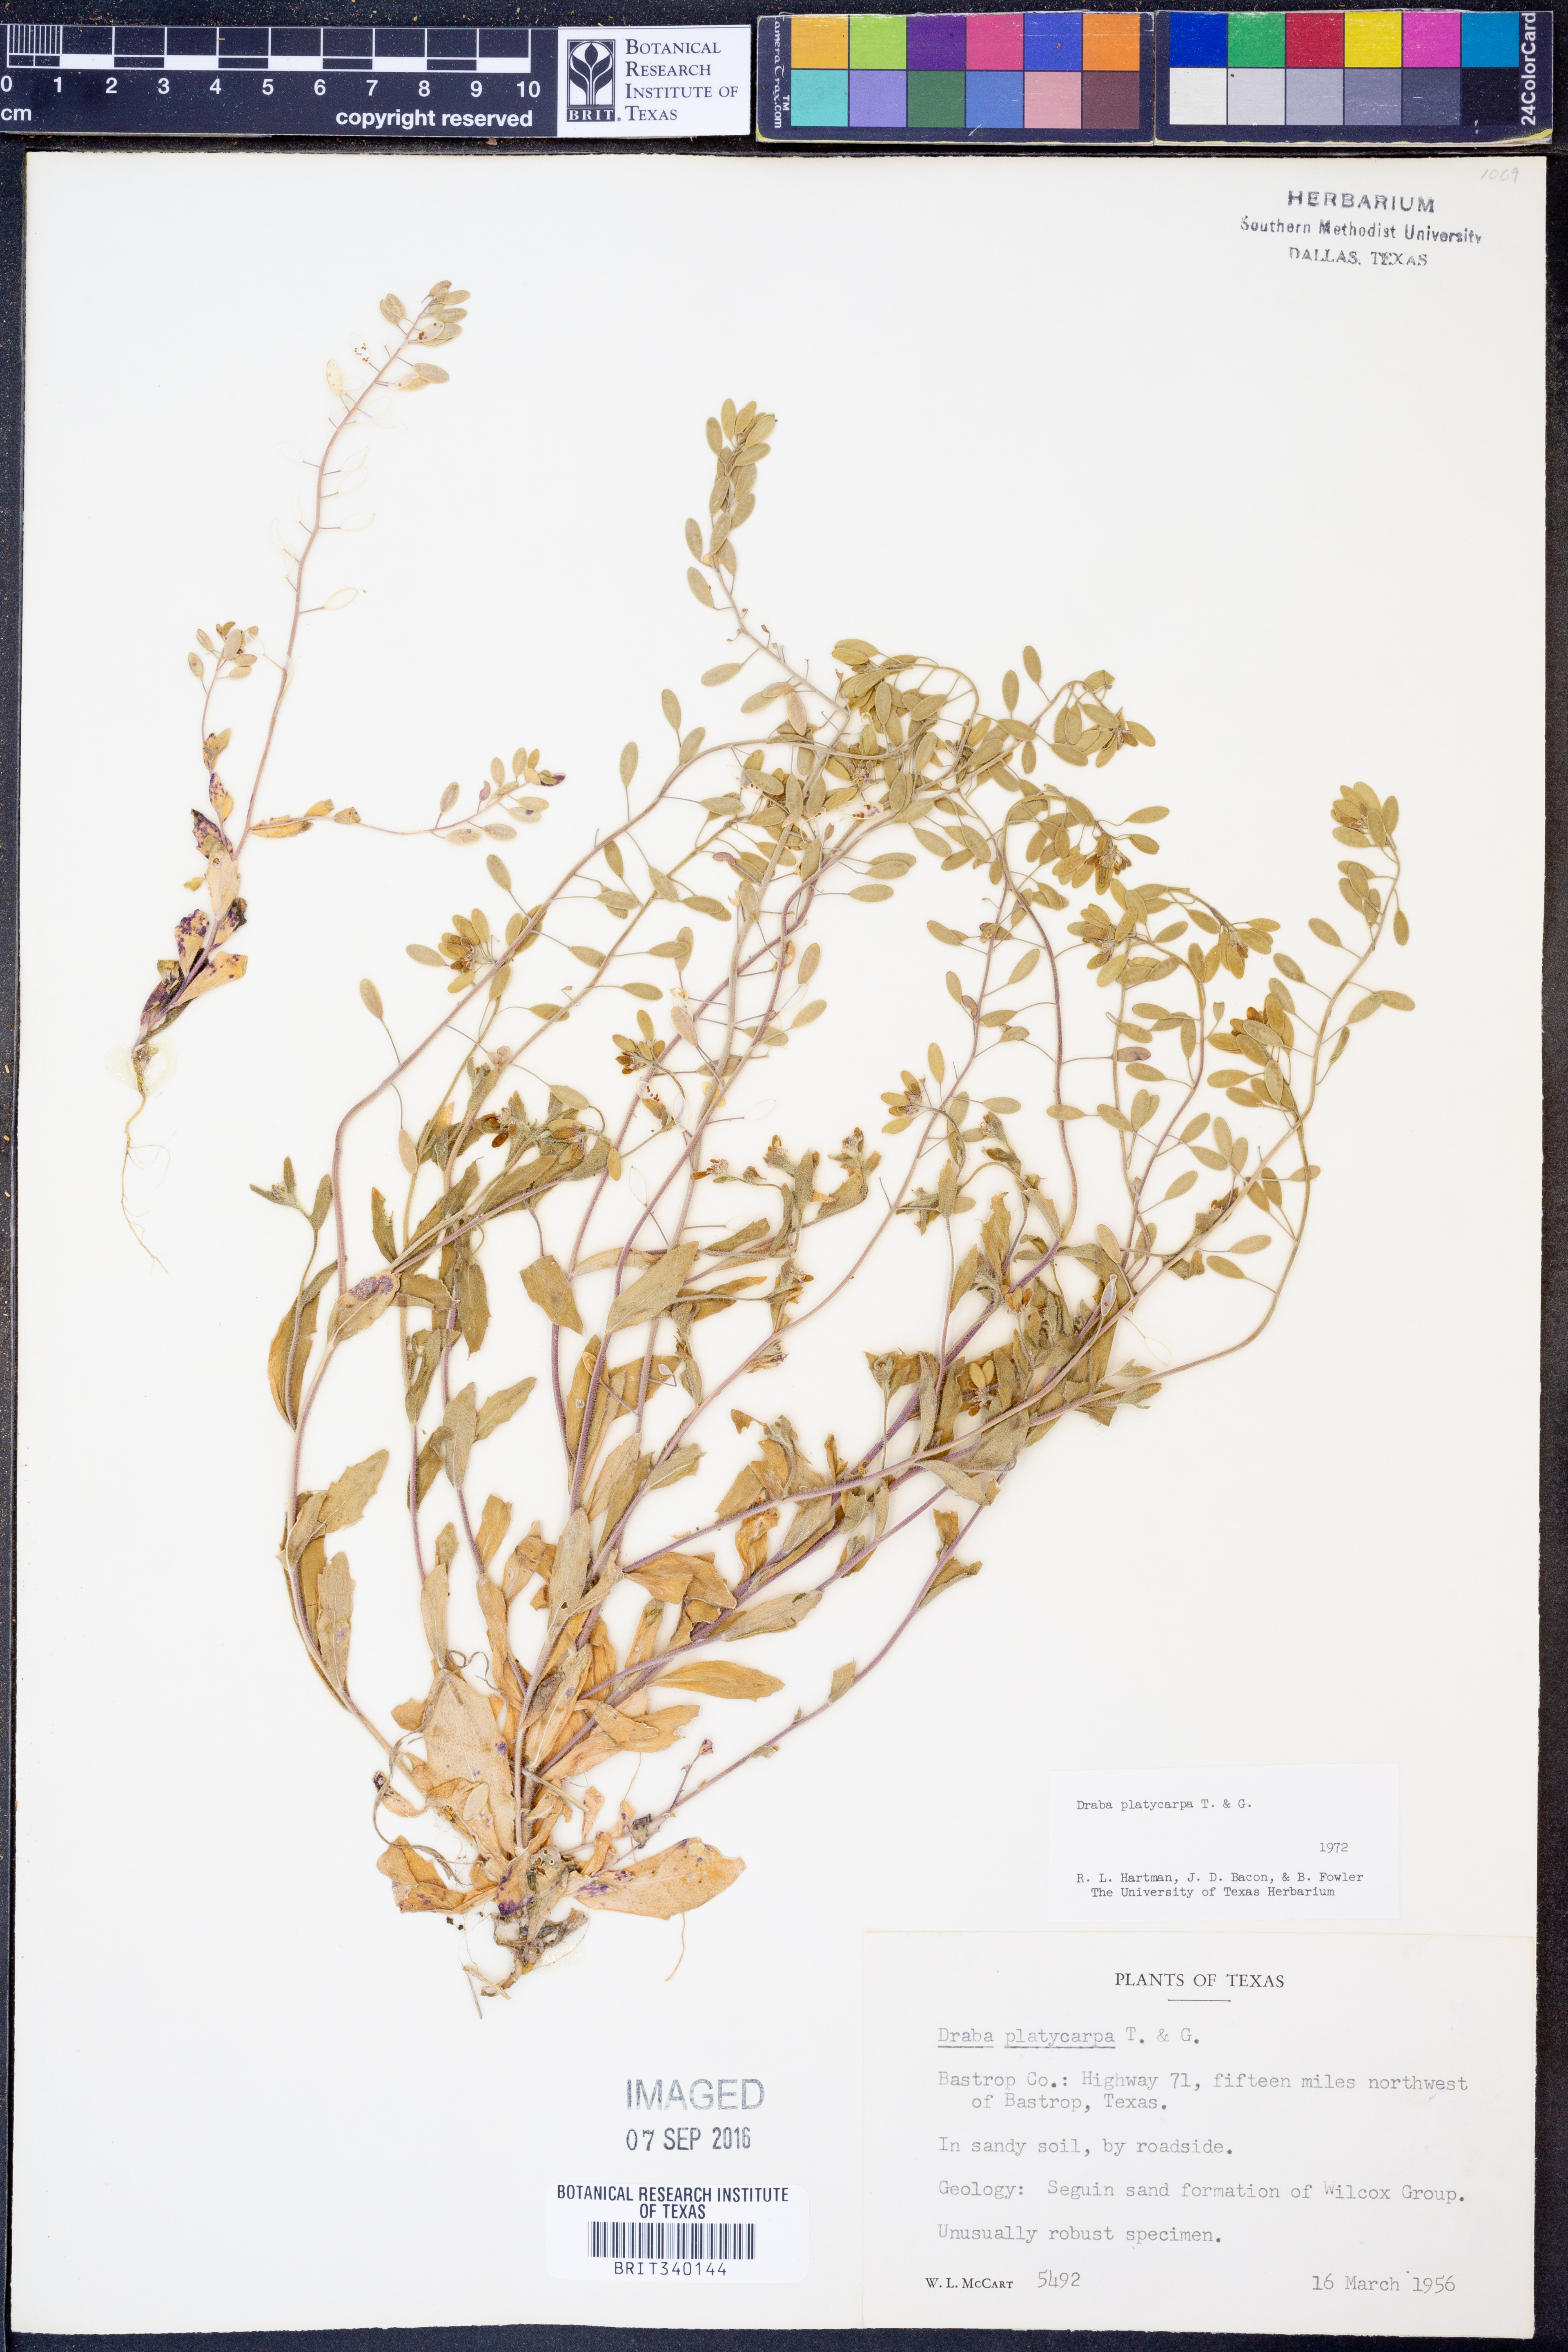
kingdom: Plantae
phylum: Tracheophyta
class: Magnoliopsida
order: Brassicales
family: Brassicaceae
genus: Tomostima
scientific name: Tomostima platycarpa
